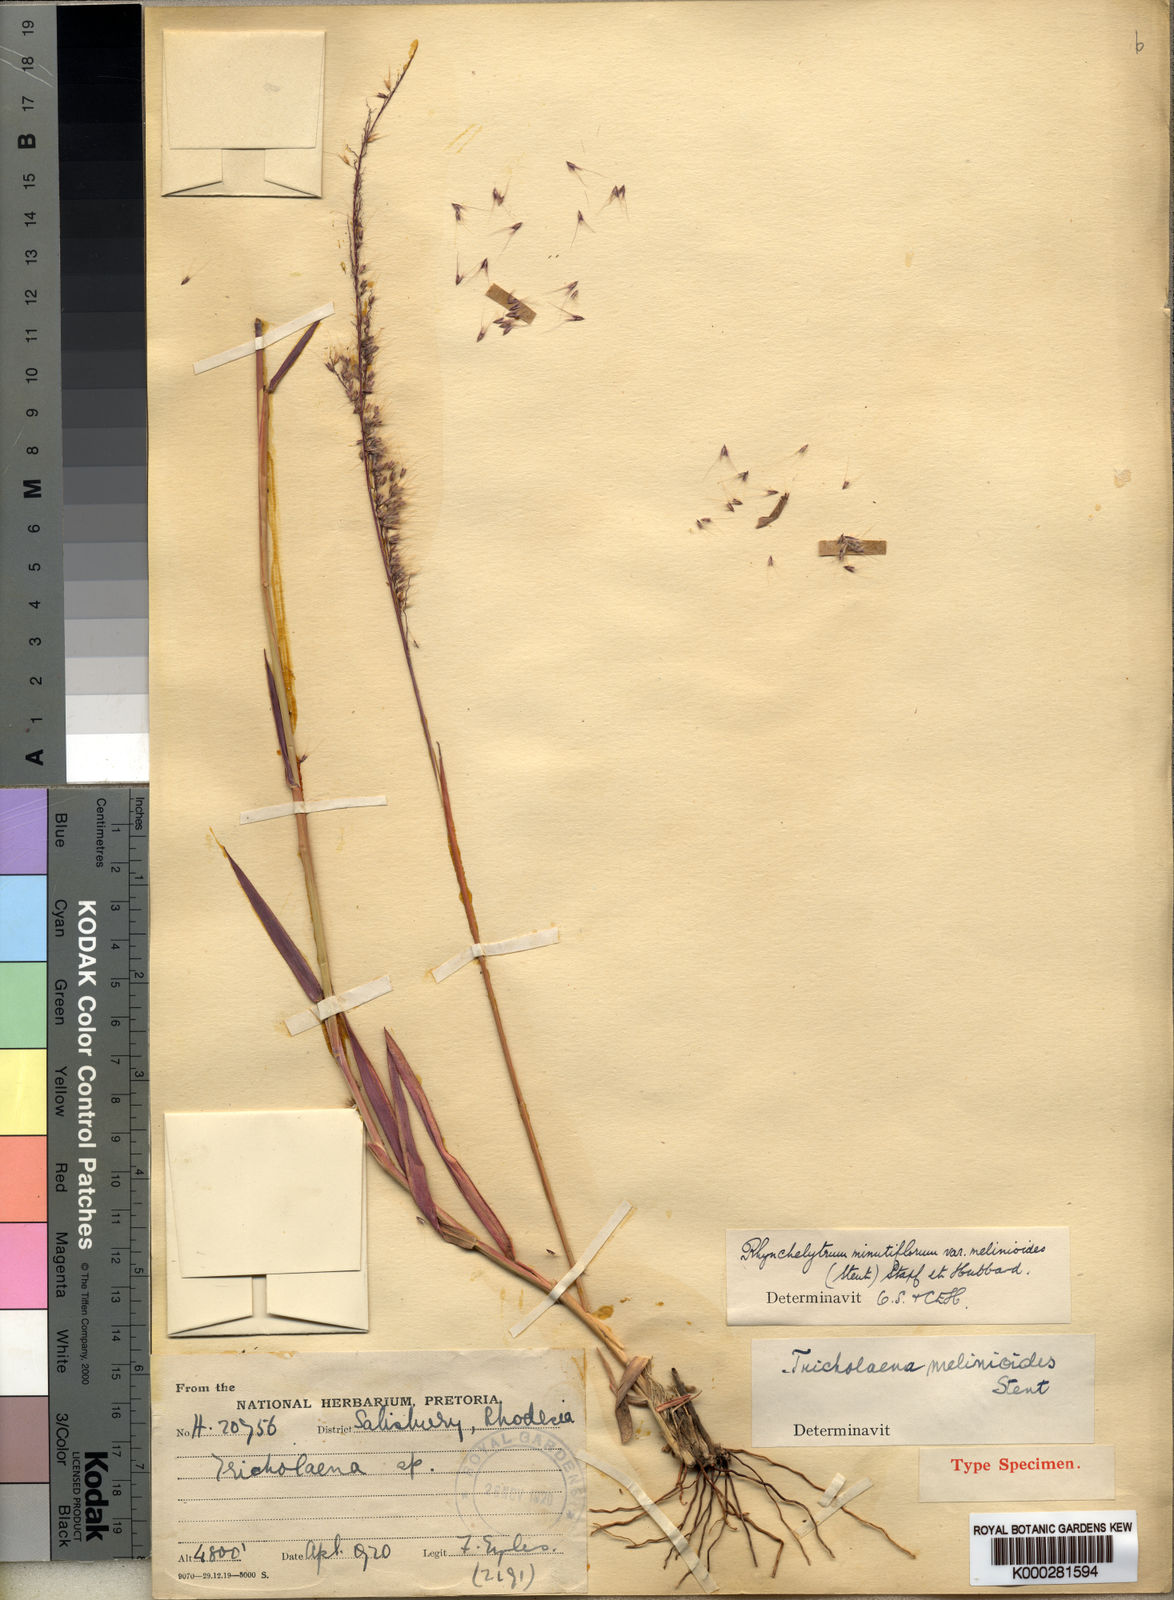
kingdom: Plantae
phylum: Tracheophyta
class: Liliopsida
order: Poales
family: Poaceae
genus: Melinis
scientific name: Melinis longiseta
